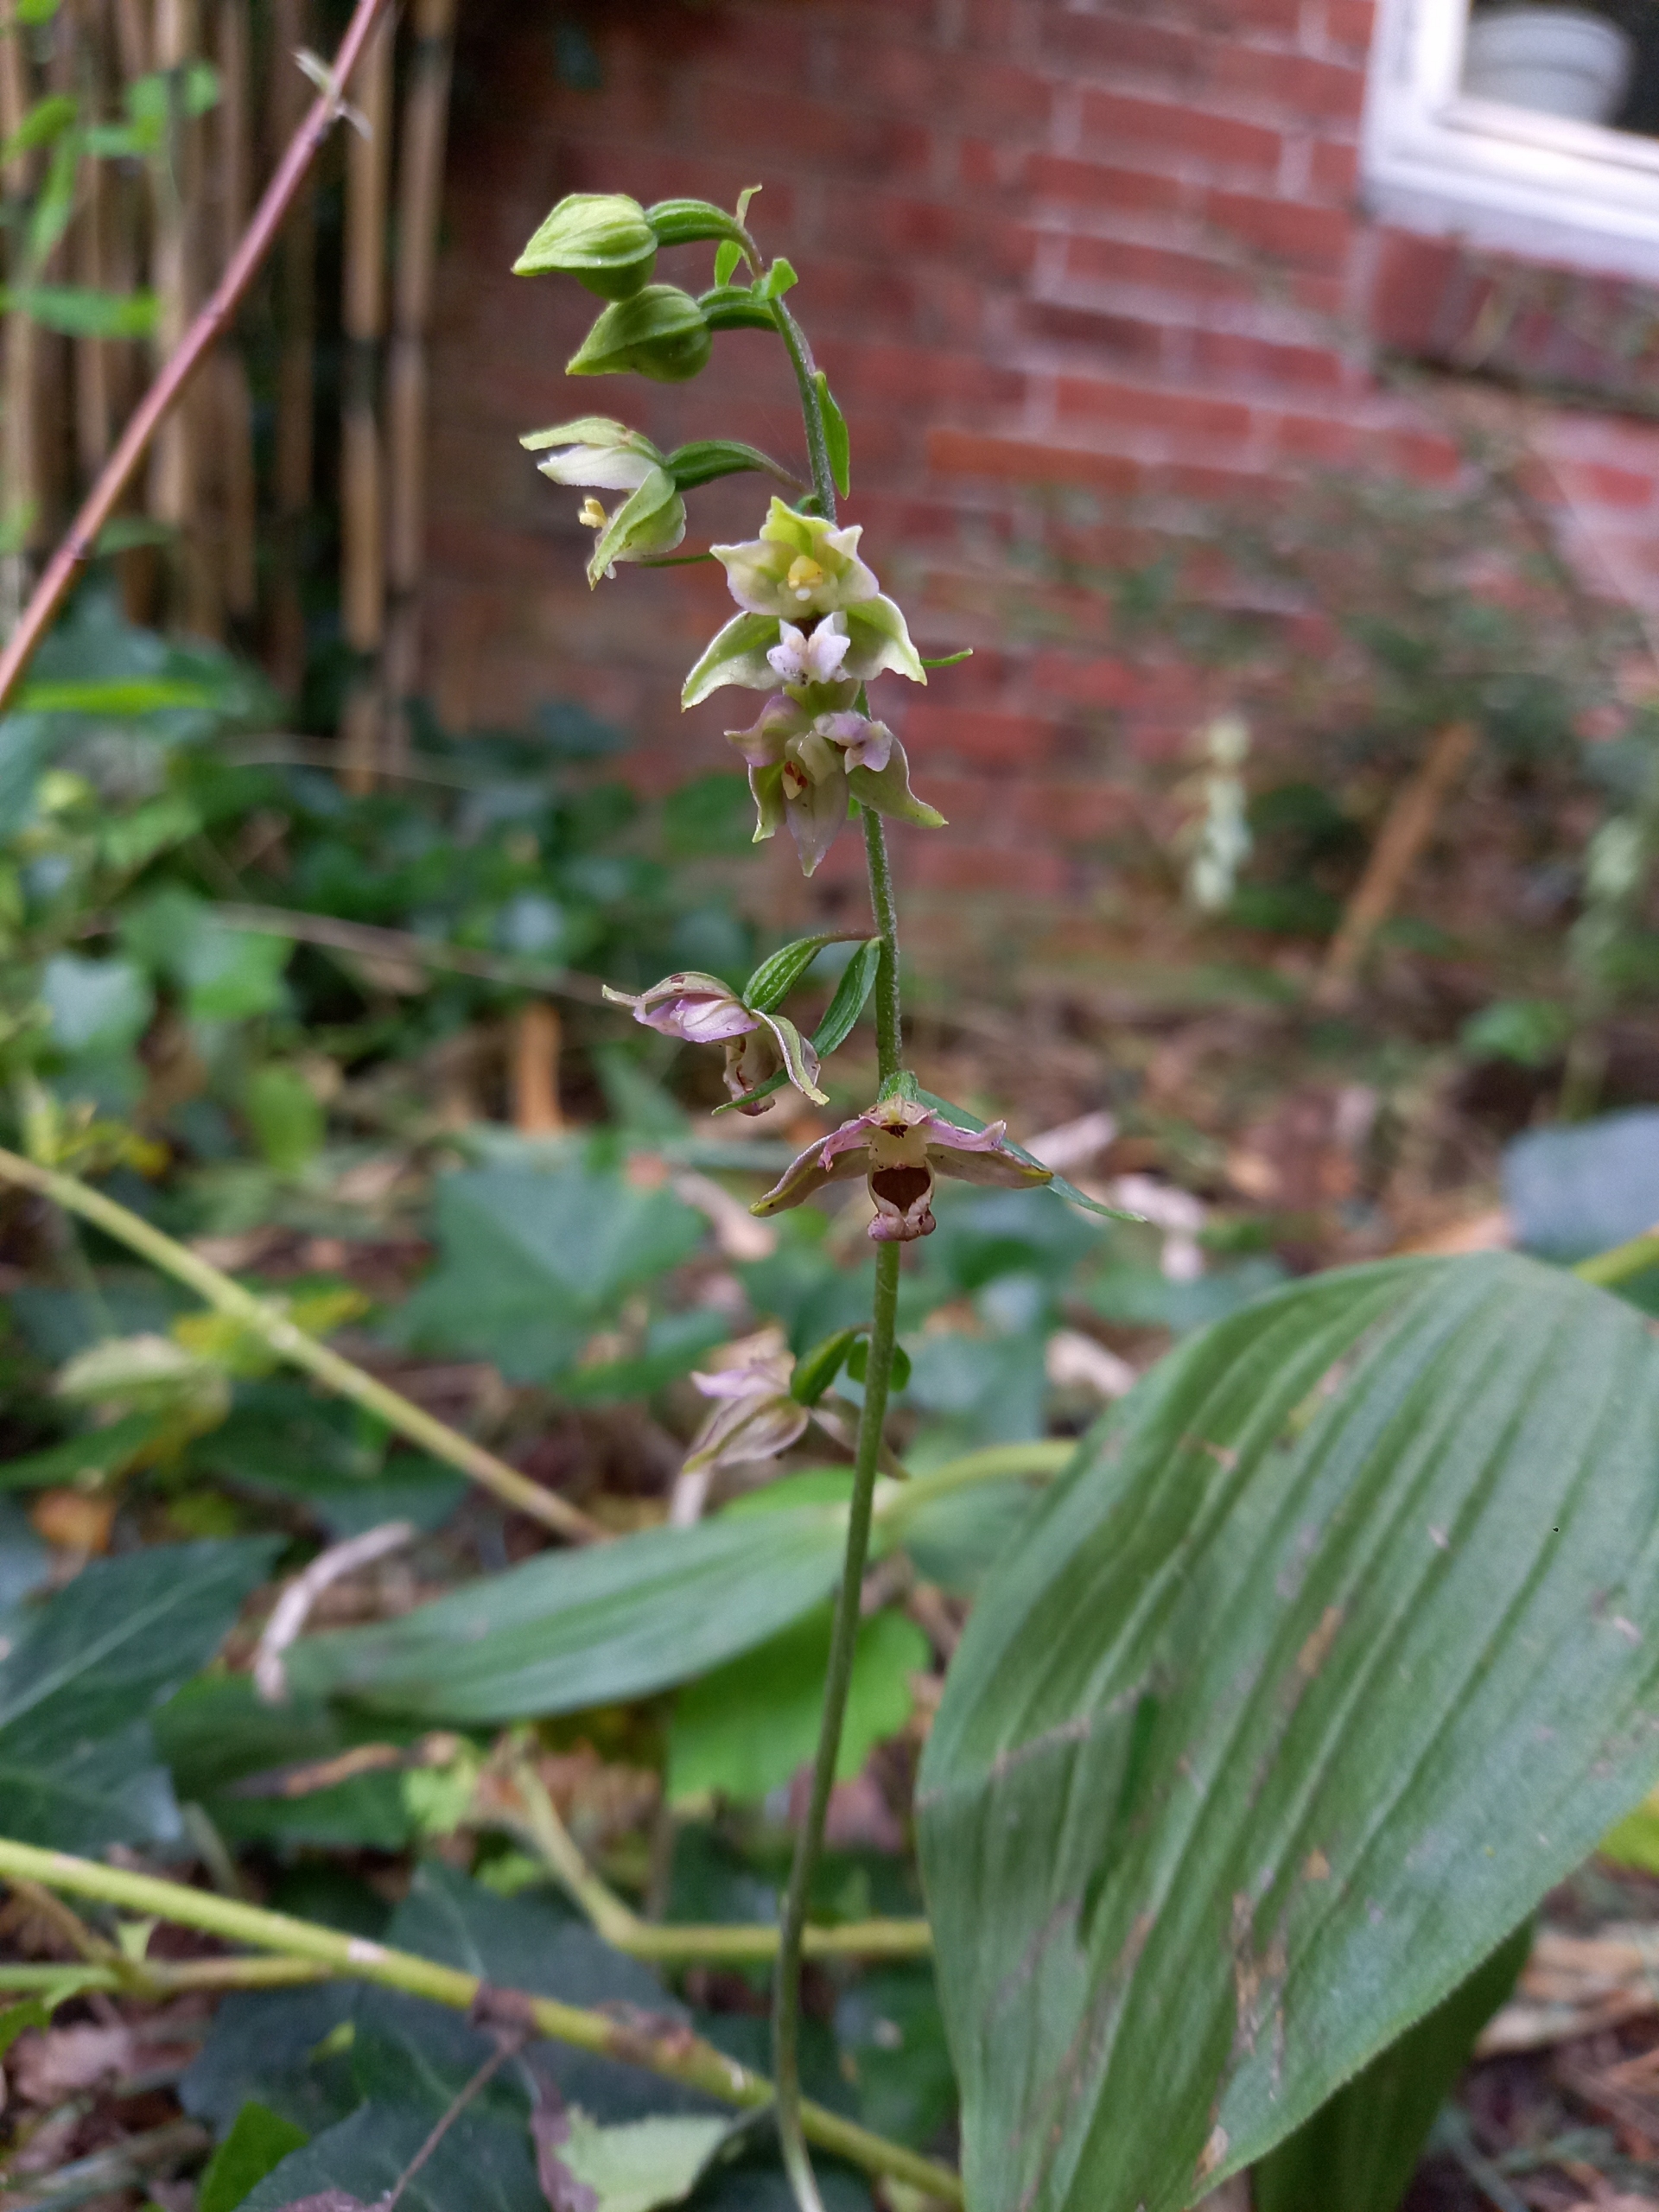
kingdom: Plantae
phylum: Tracheophyta
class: Liliopsida
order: Asparagales
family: Orchidaceae
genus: Epipactis
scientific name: Epipactis helleborine
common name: Skov-hullæbe
